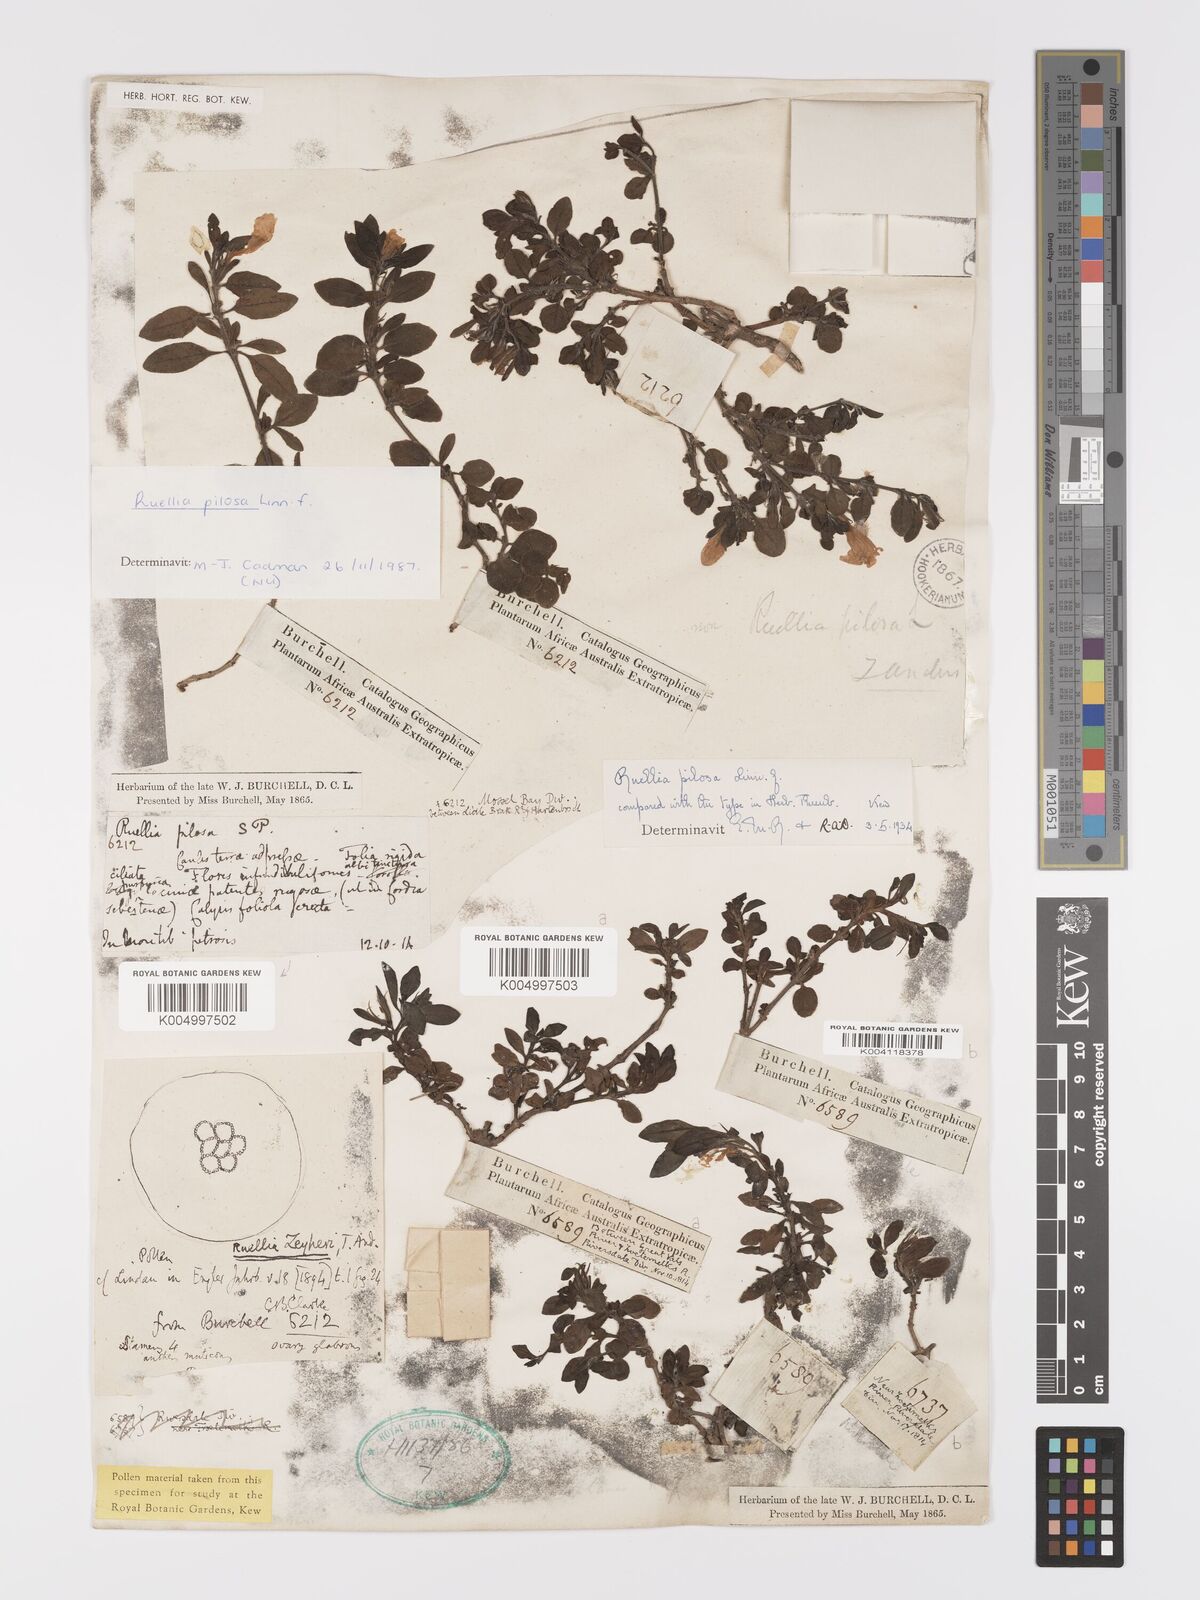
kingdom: Plantae
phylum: Tracheophyta
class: Magnoliopsida
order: Lamiales
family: Acanthaceae
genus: Ruellia
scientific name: Ruellia
